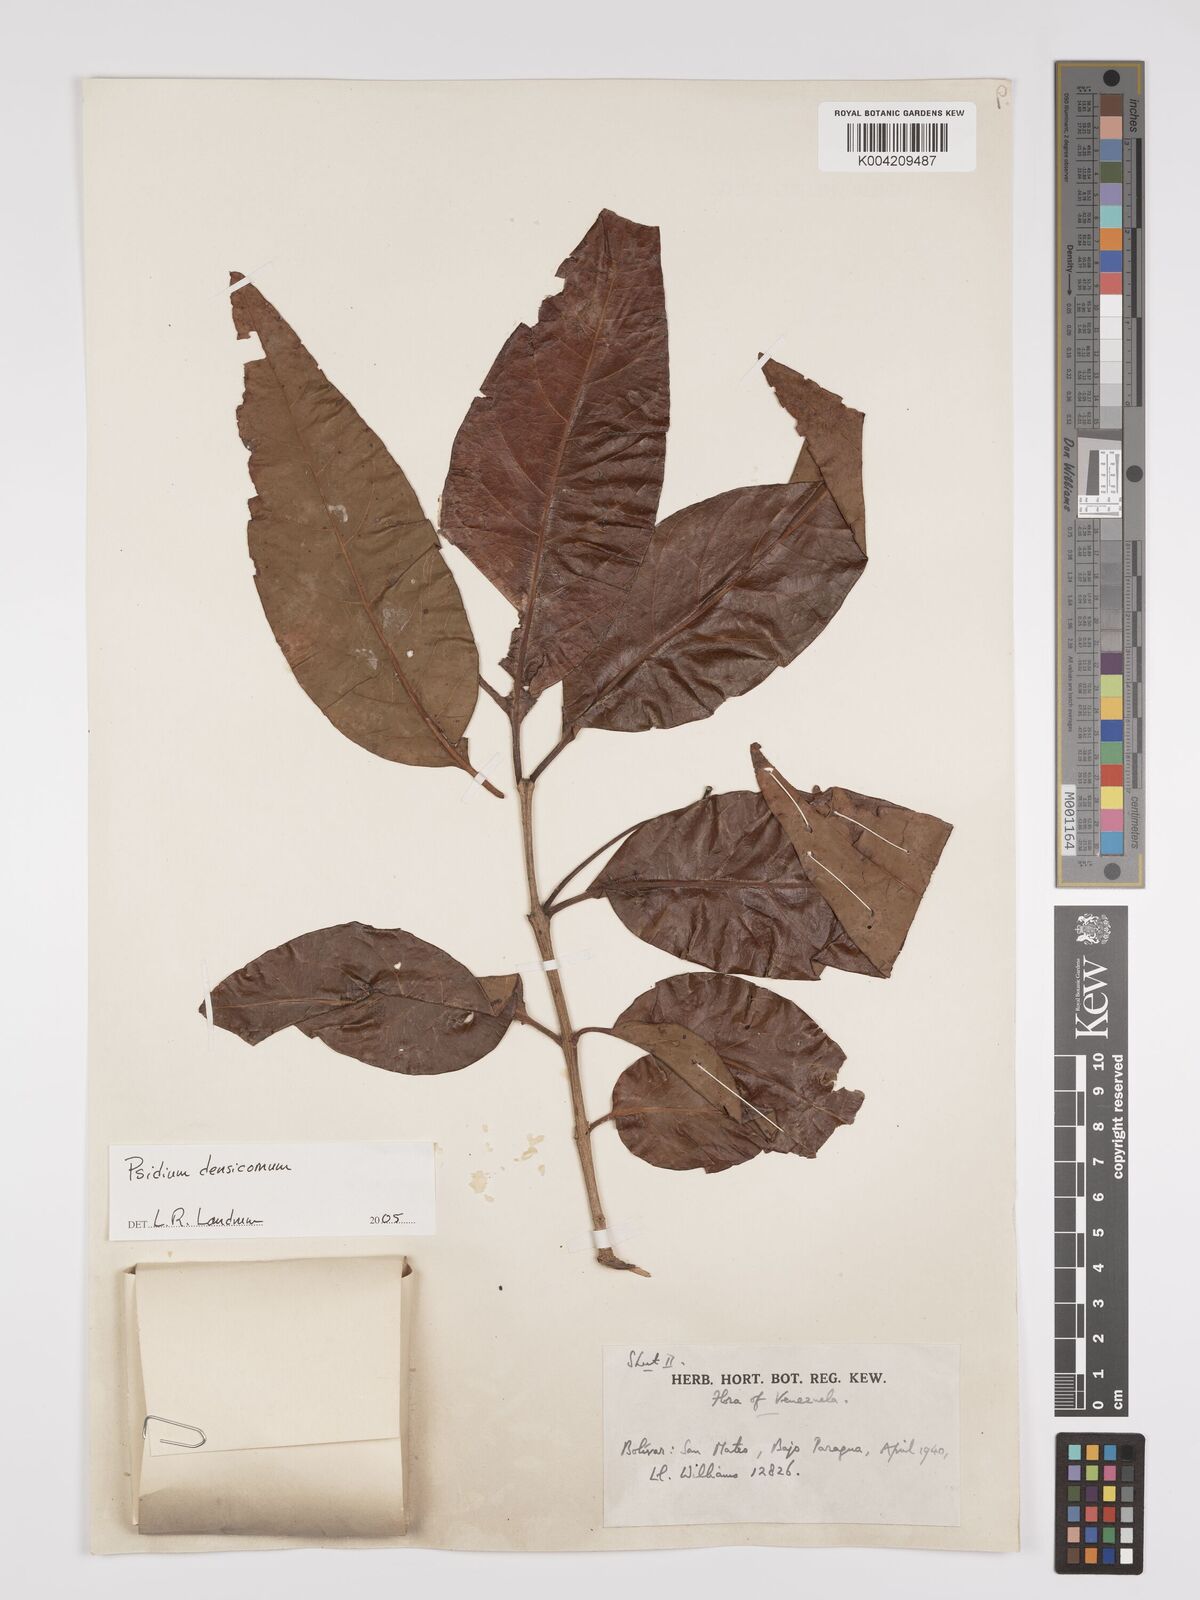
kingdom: Plantae
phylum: Tracheophyta
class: Magnoliopsida
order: Myrtales
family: Myrtaceae
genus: Psidium
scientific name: Psidium densicomum
